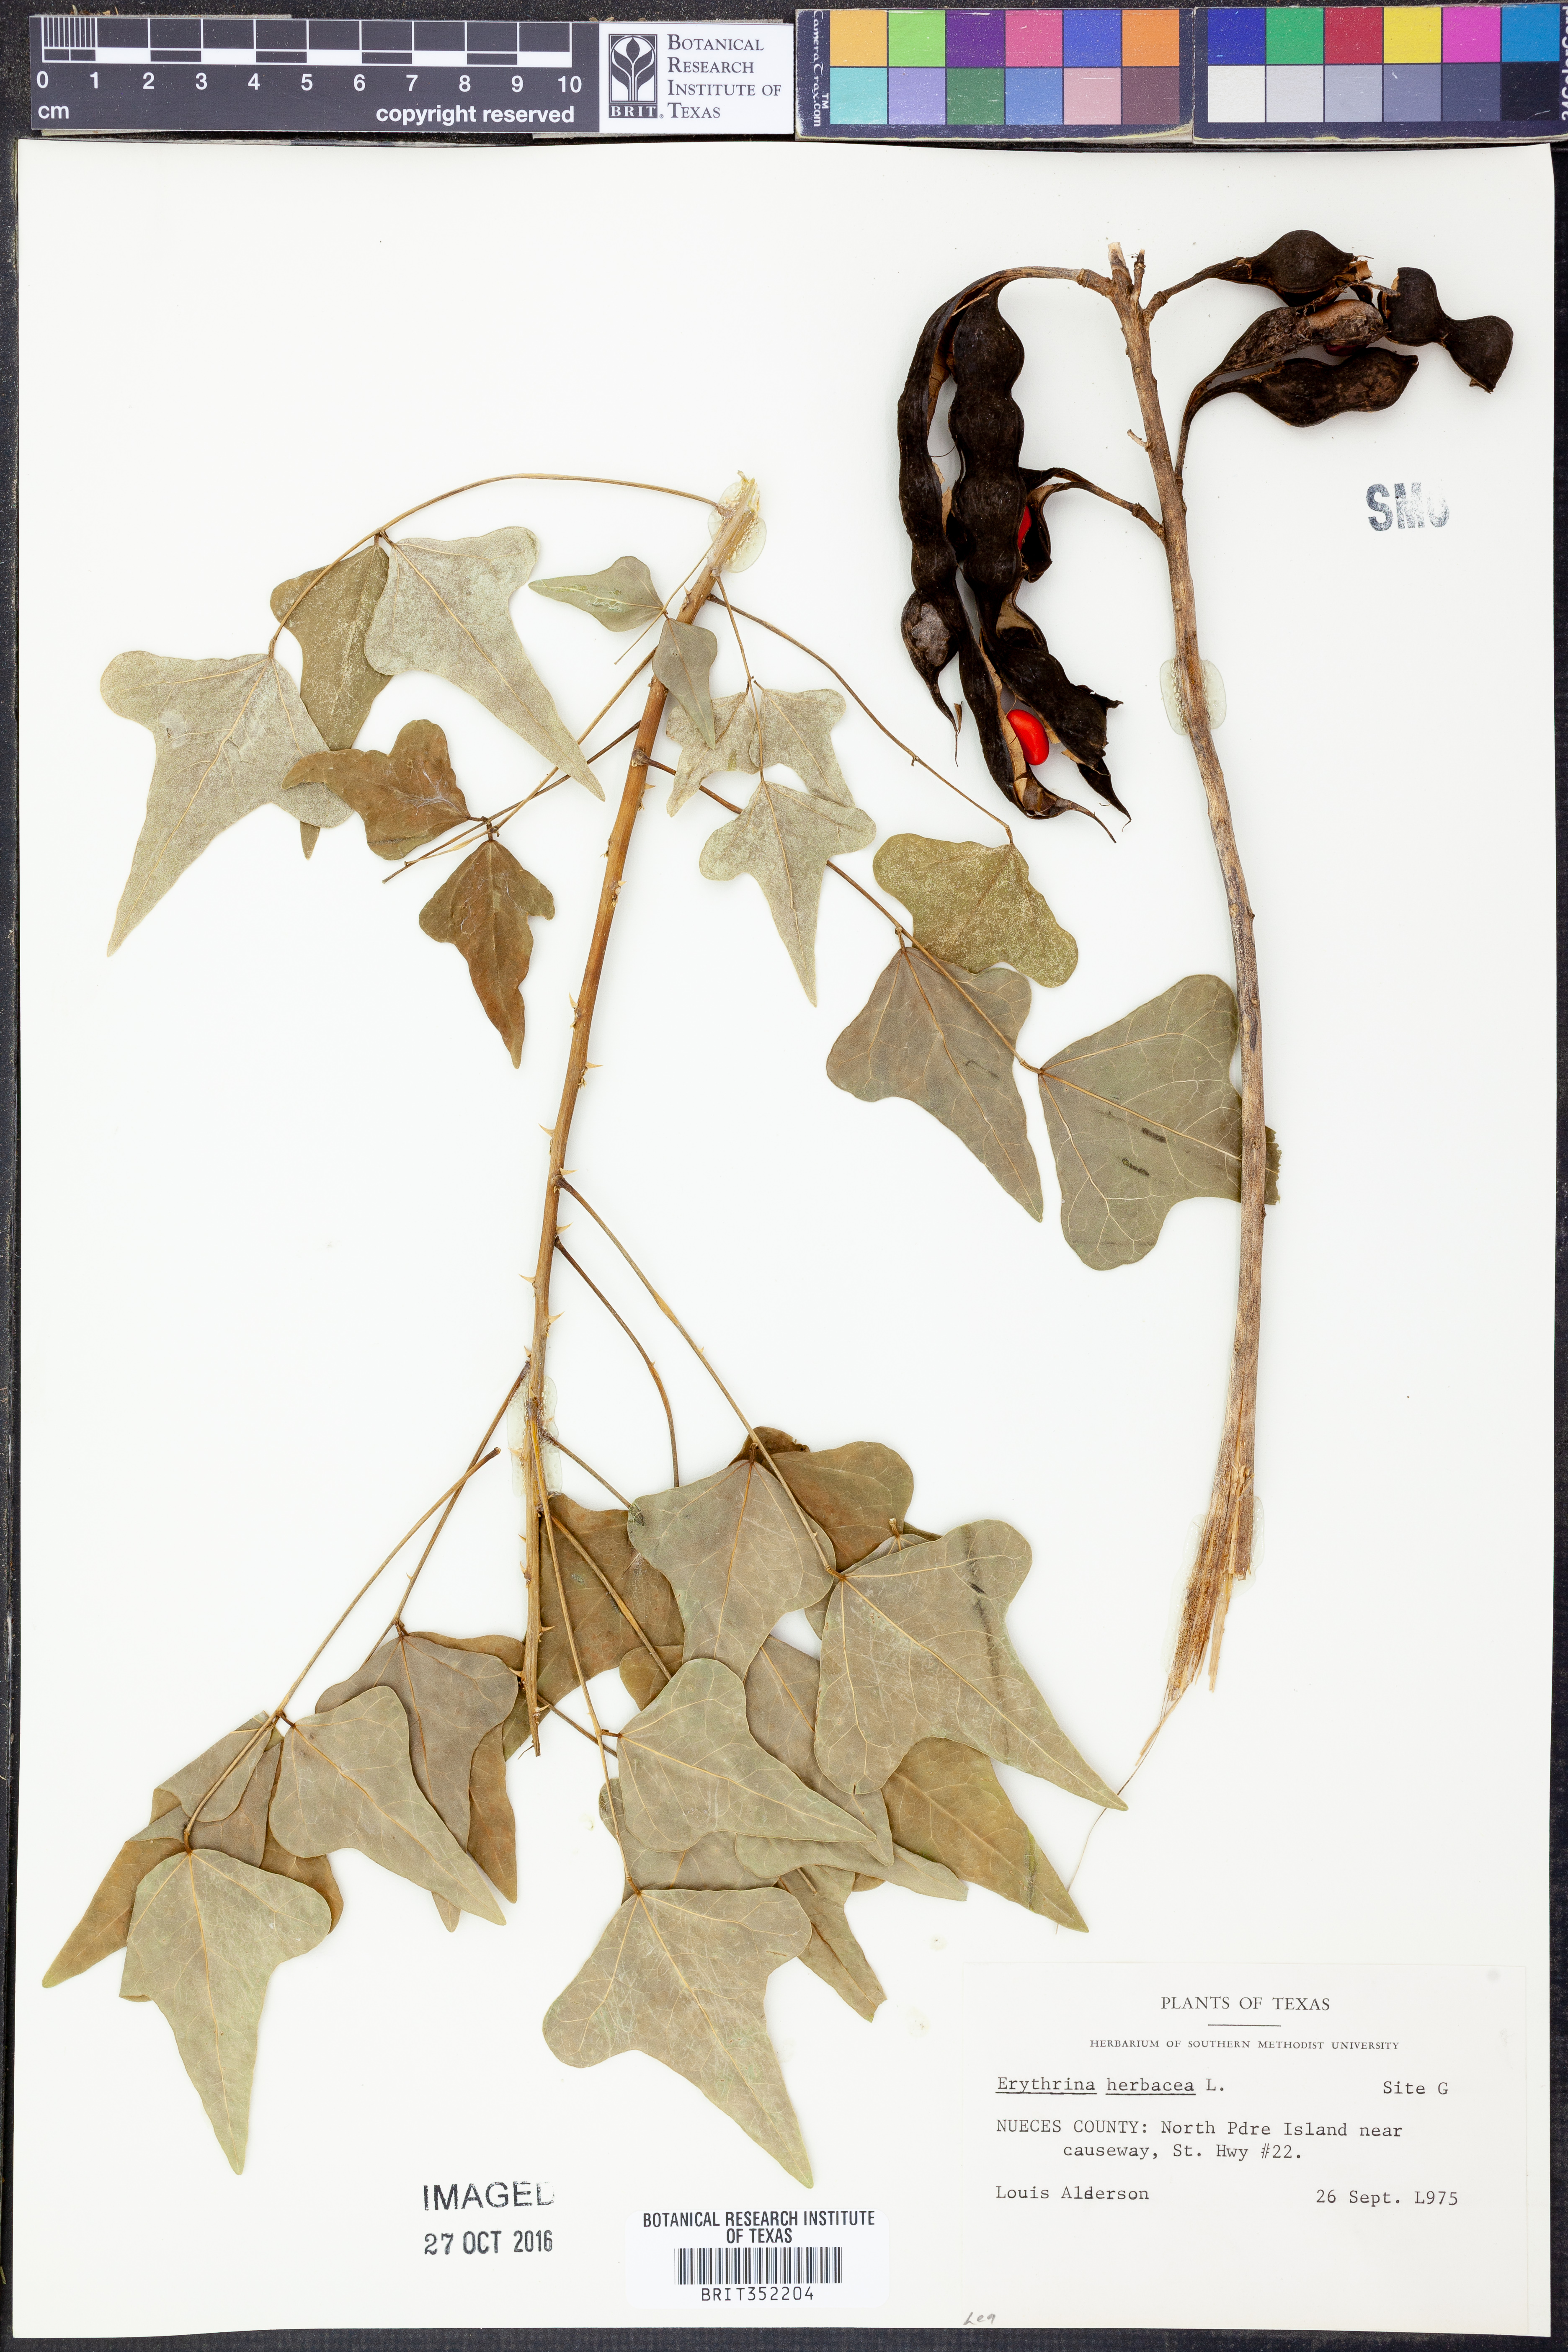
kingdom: Plantae
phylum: Tracheophyta
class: Magnoliopsida
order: Fabales
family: Fabaceae
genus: Erythrina
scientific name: Erythrina herbacea
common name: Coral-bean
